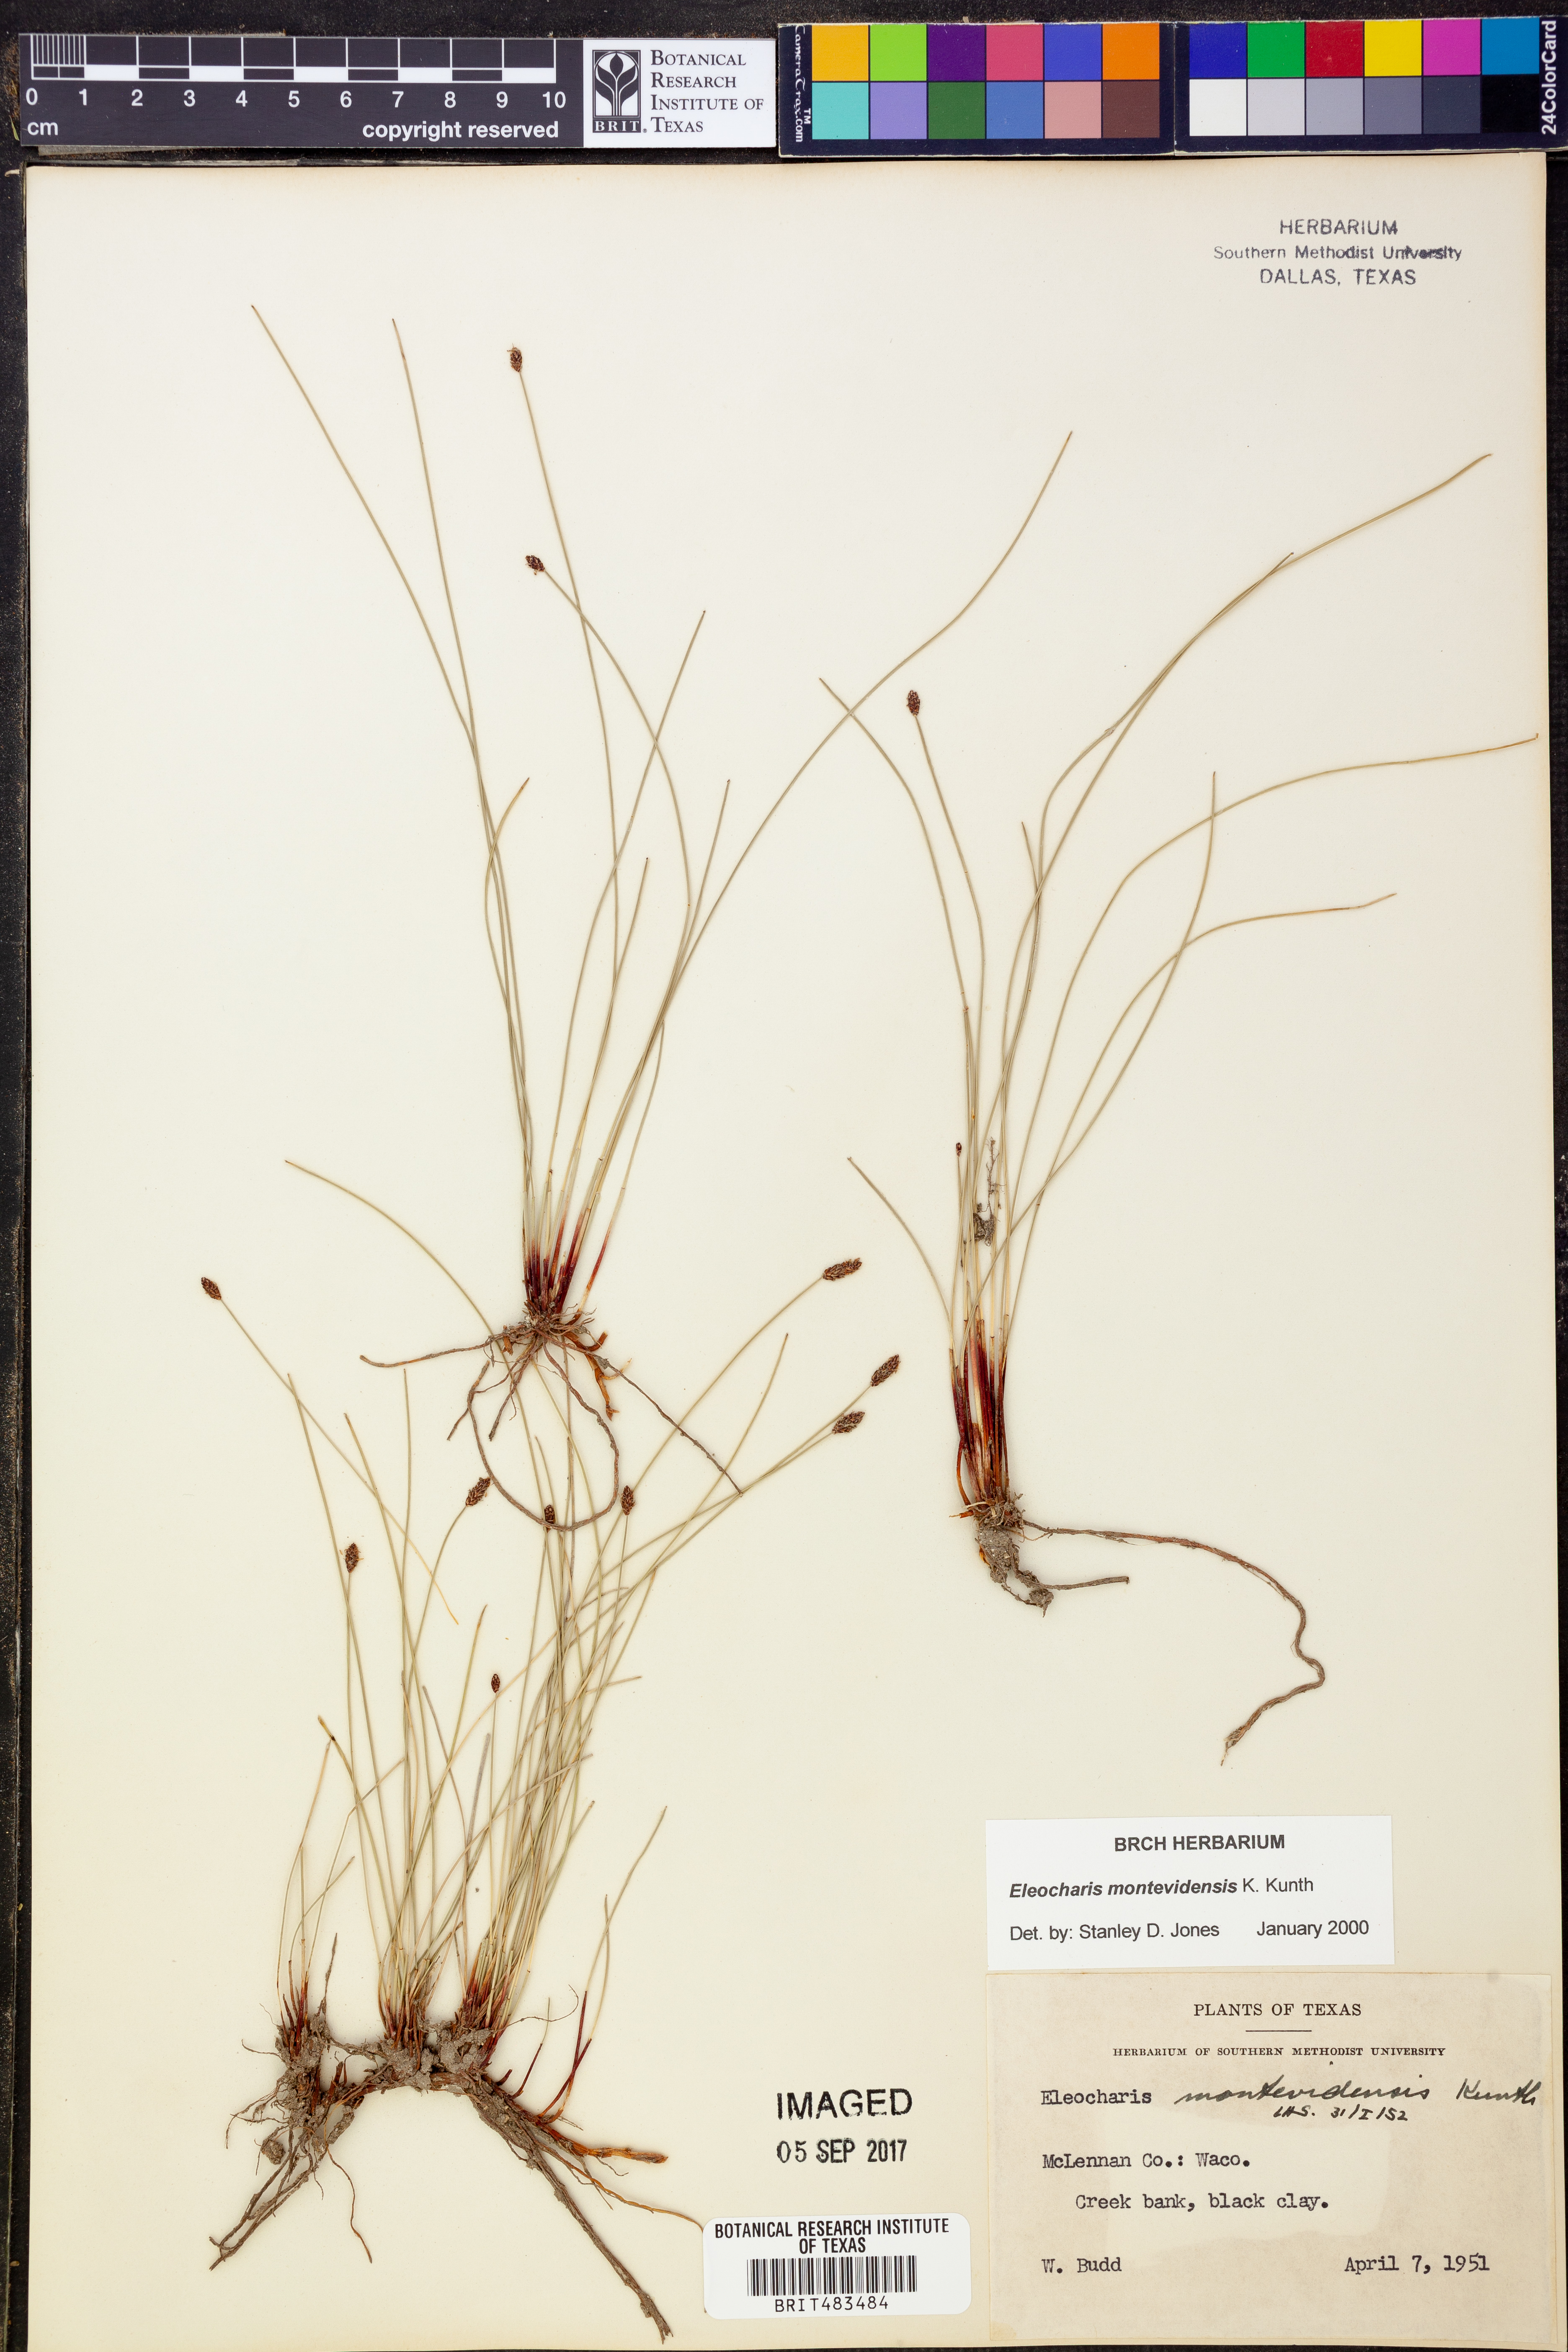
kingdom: Plantae
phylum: Tracheophyta
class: Liliopsida
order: Poales
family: Cyperaceae
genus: Eleocharis
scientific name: Eleocharis montevidensis
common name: Sand spike-rush
